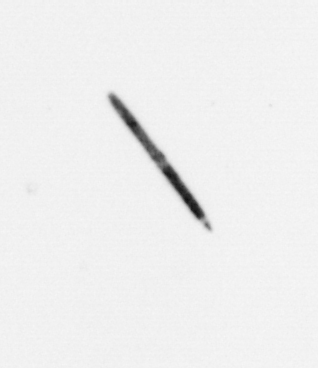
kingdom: Bacteria
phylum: Cyanobacteria
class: Cyanobacteriia
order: Cyanobacteriales
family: Microcoleaceae
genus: Trichodesmium
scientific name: Trichodesmium
